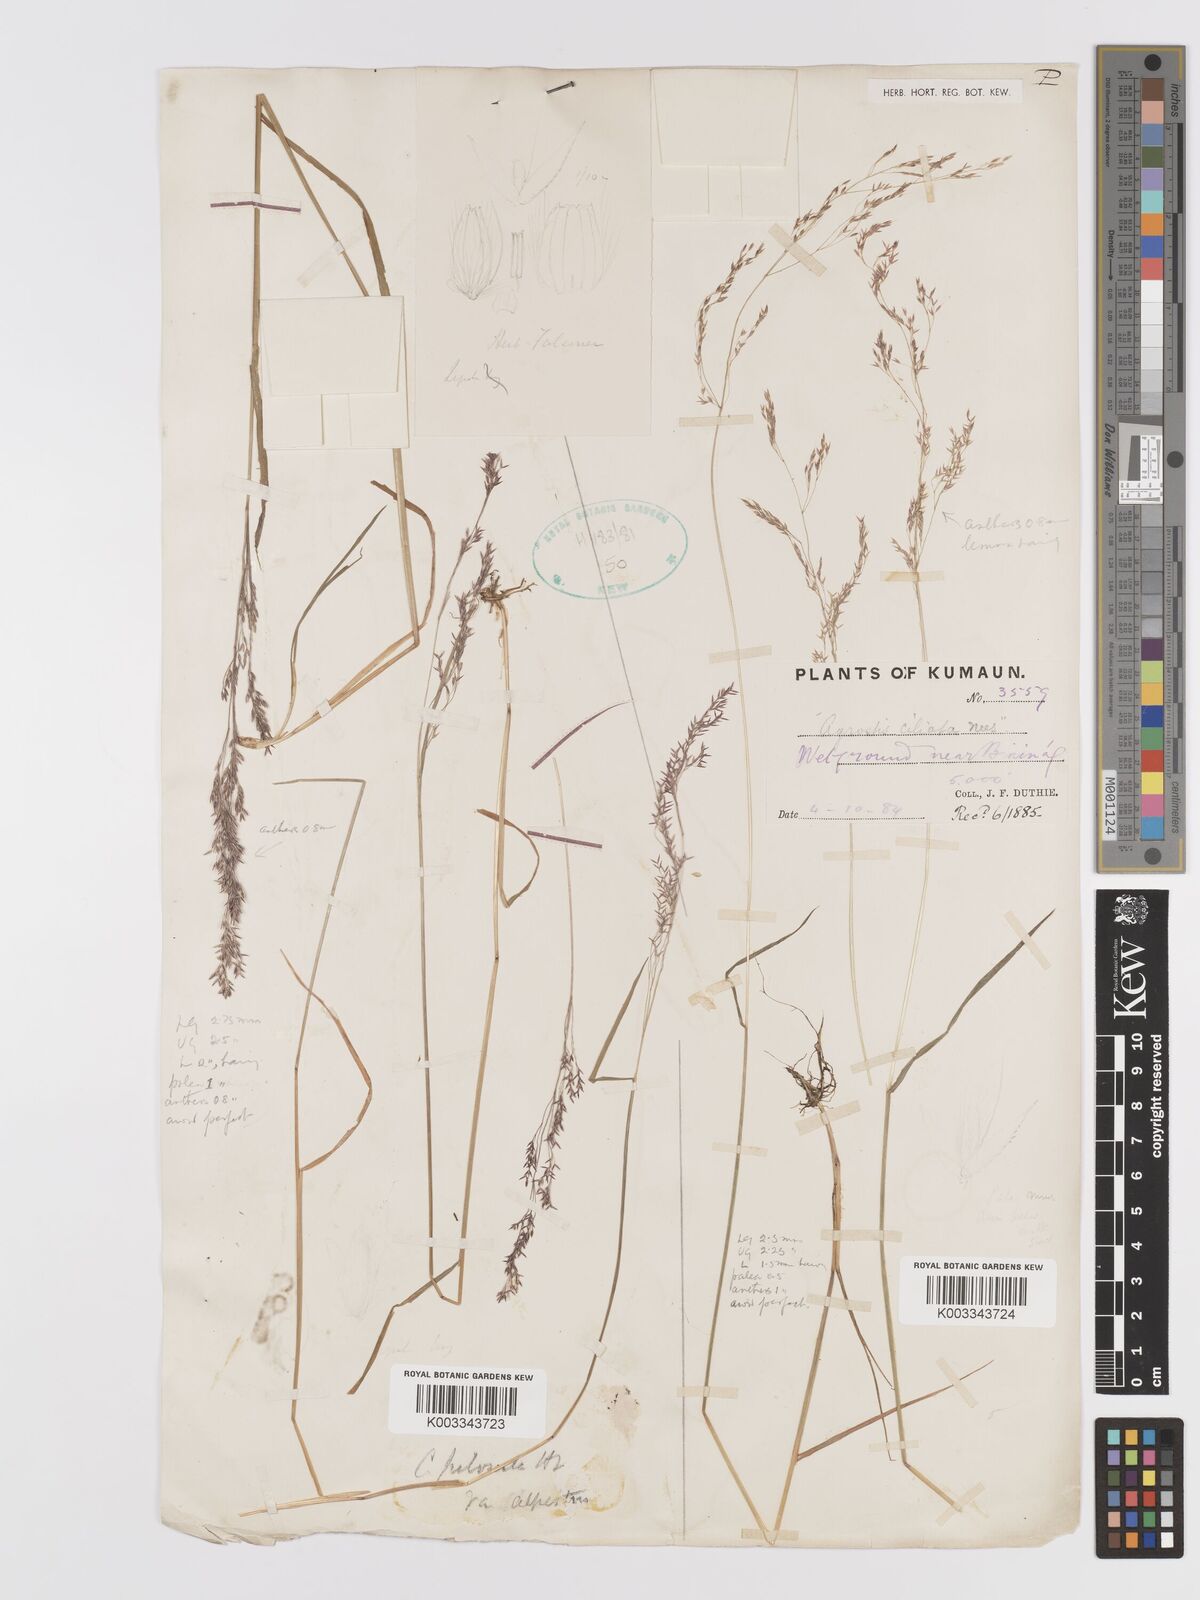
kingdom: Plantae
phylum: Tracheophyta
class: Liliopsida
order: Poales
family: Poaceae
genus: Agrostis
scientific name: Agrostis pilosula
